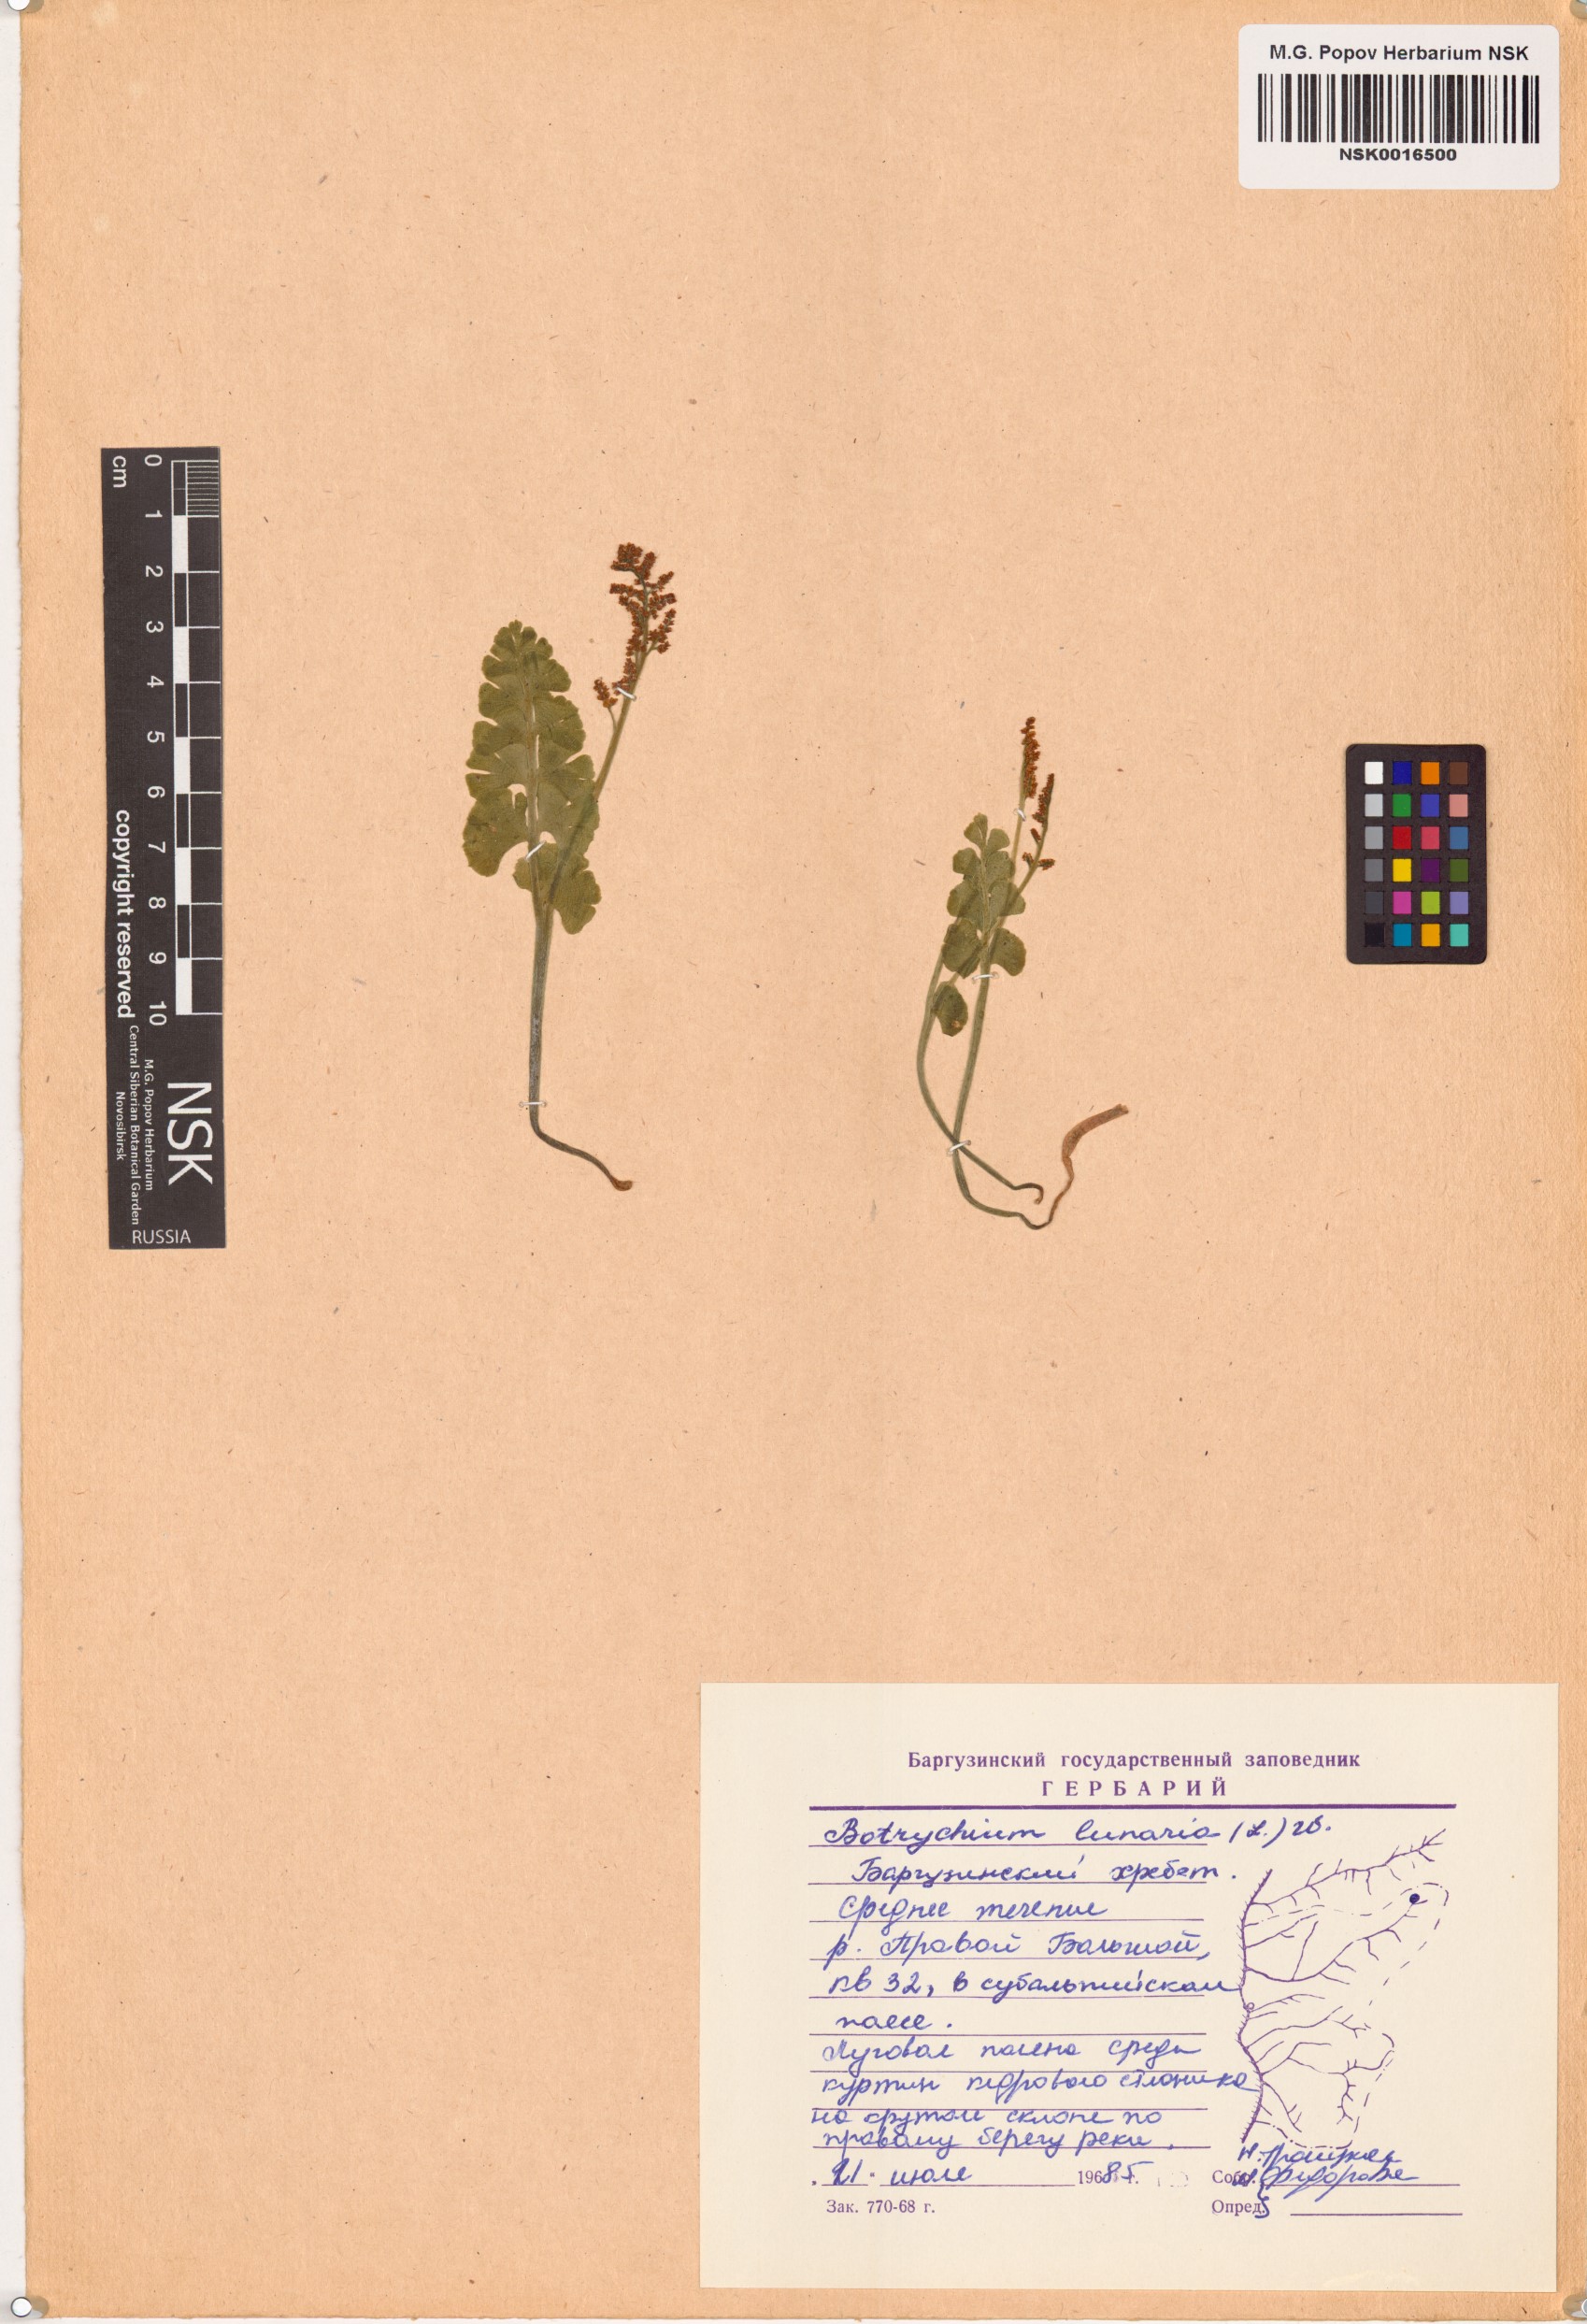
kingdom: Plantae
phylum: Tracheophyta
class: Polypodiopsida
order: Ophioglossales
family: Ophioglossaceae
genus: Botrychium
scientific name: Botrychium lunaria
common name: Moonwort
